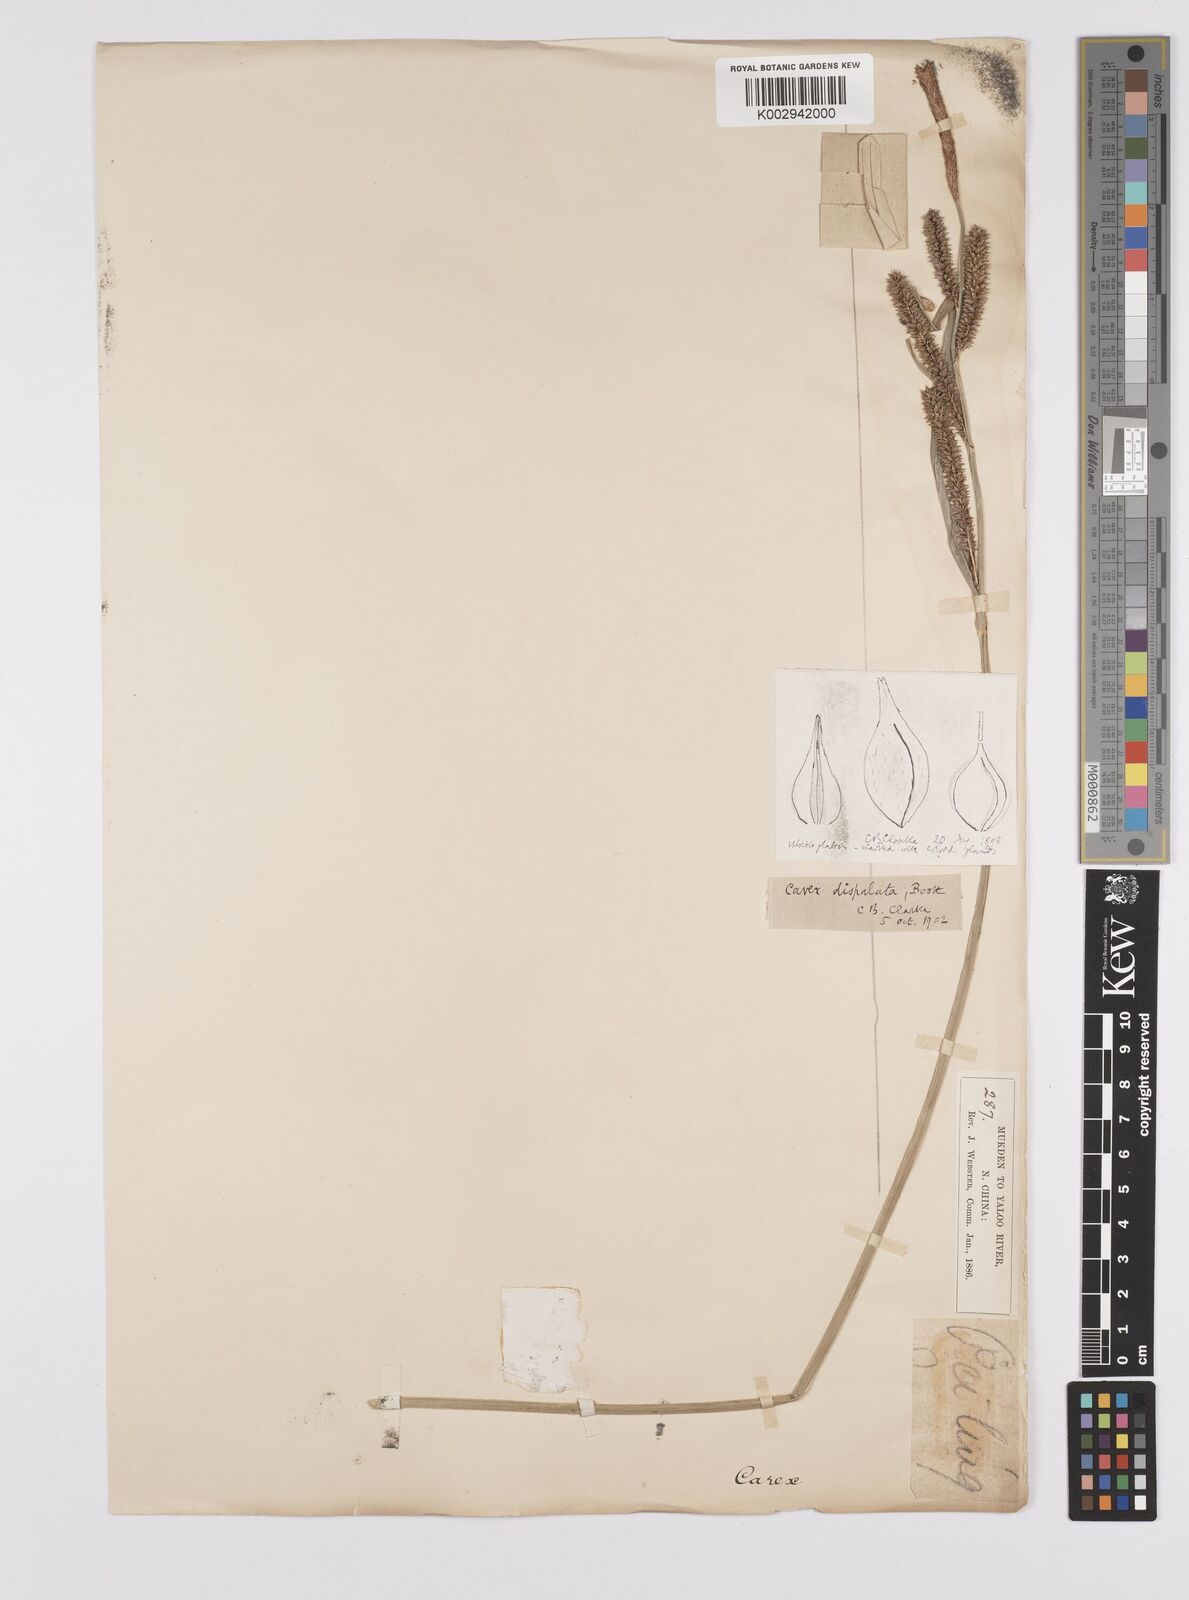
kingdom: Plantae
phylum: Tracheophyta
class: Liliopsida
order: Poales
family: Cyperaceae
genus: Carex
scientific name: Carex dispalata
